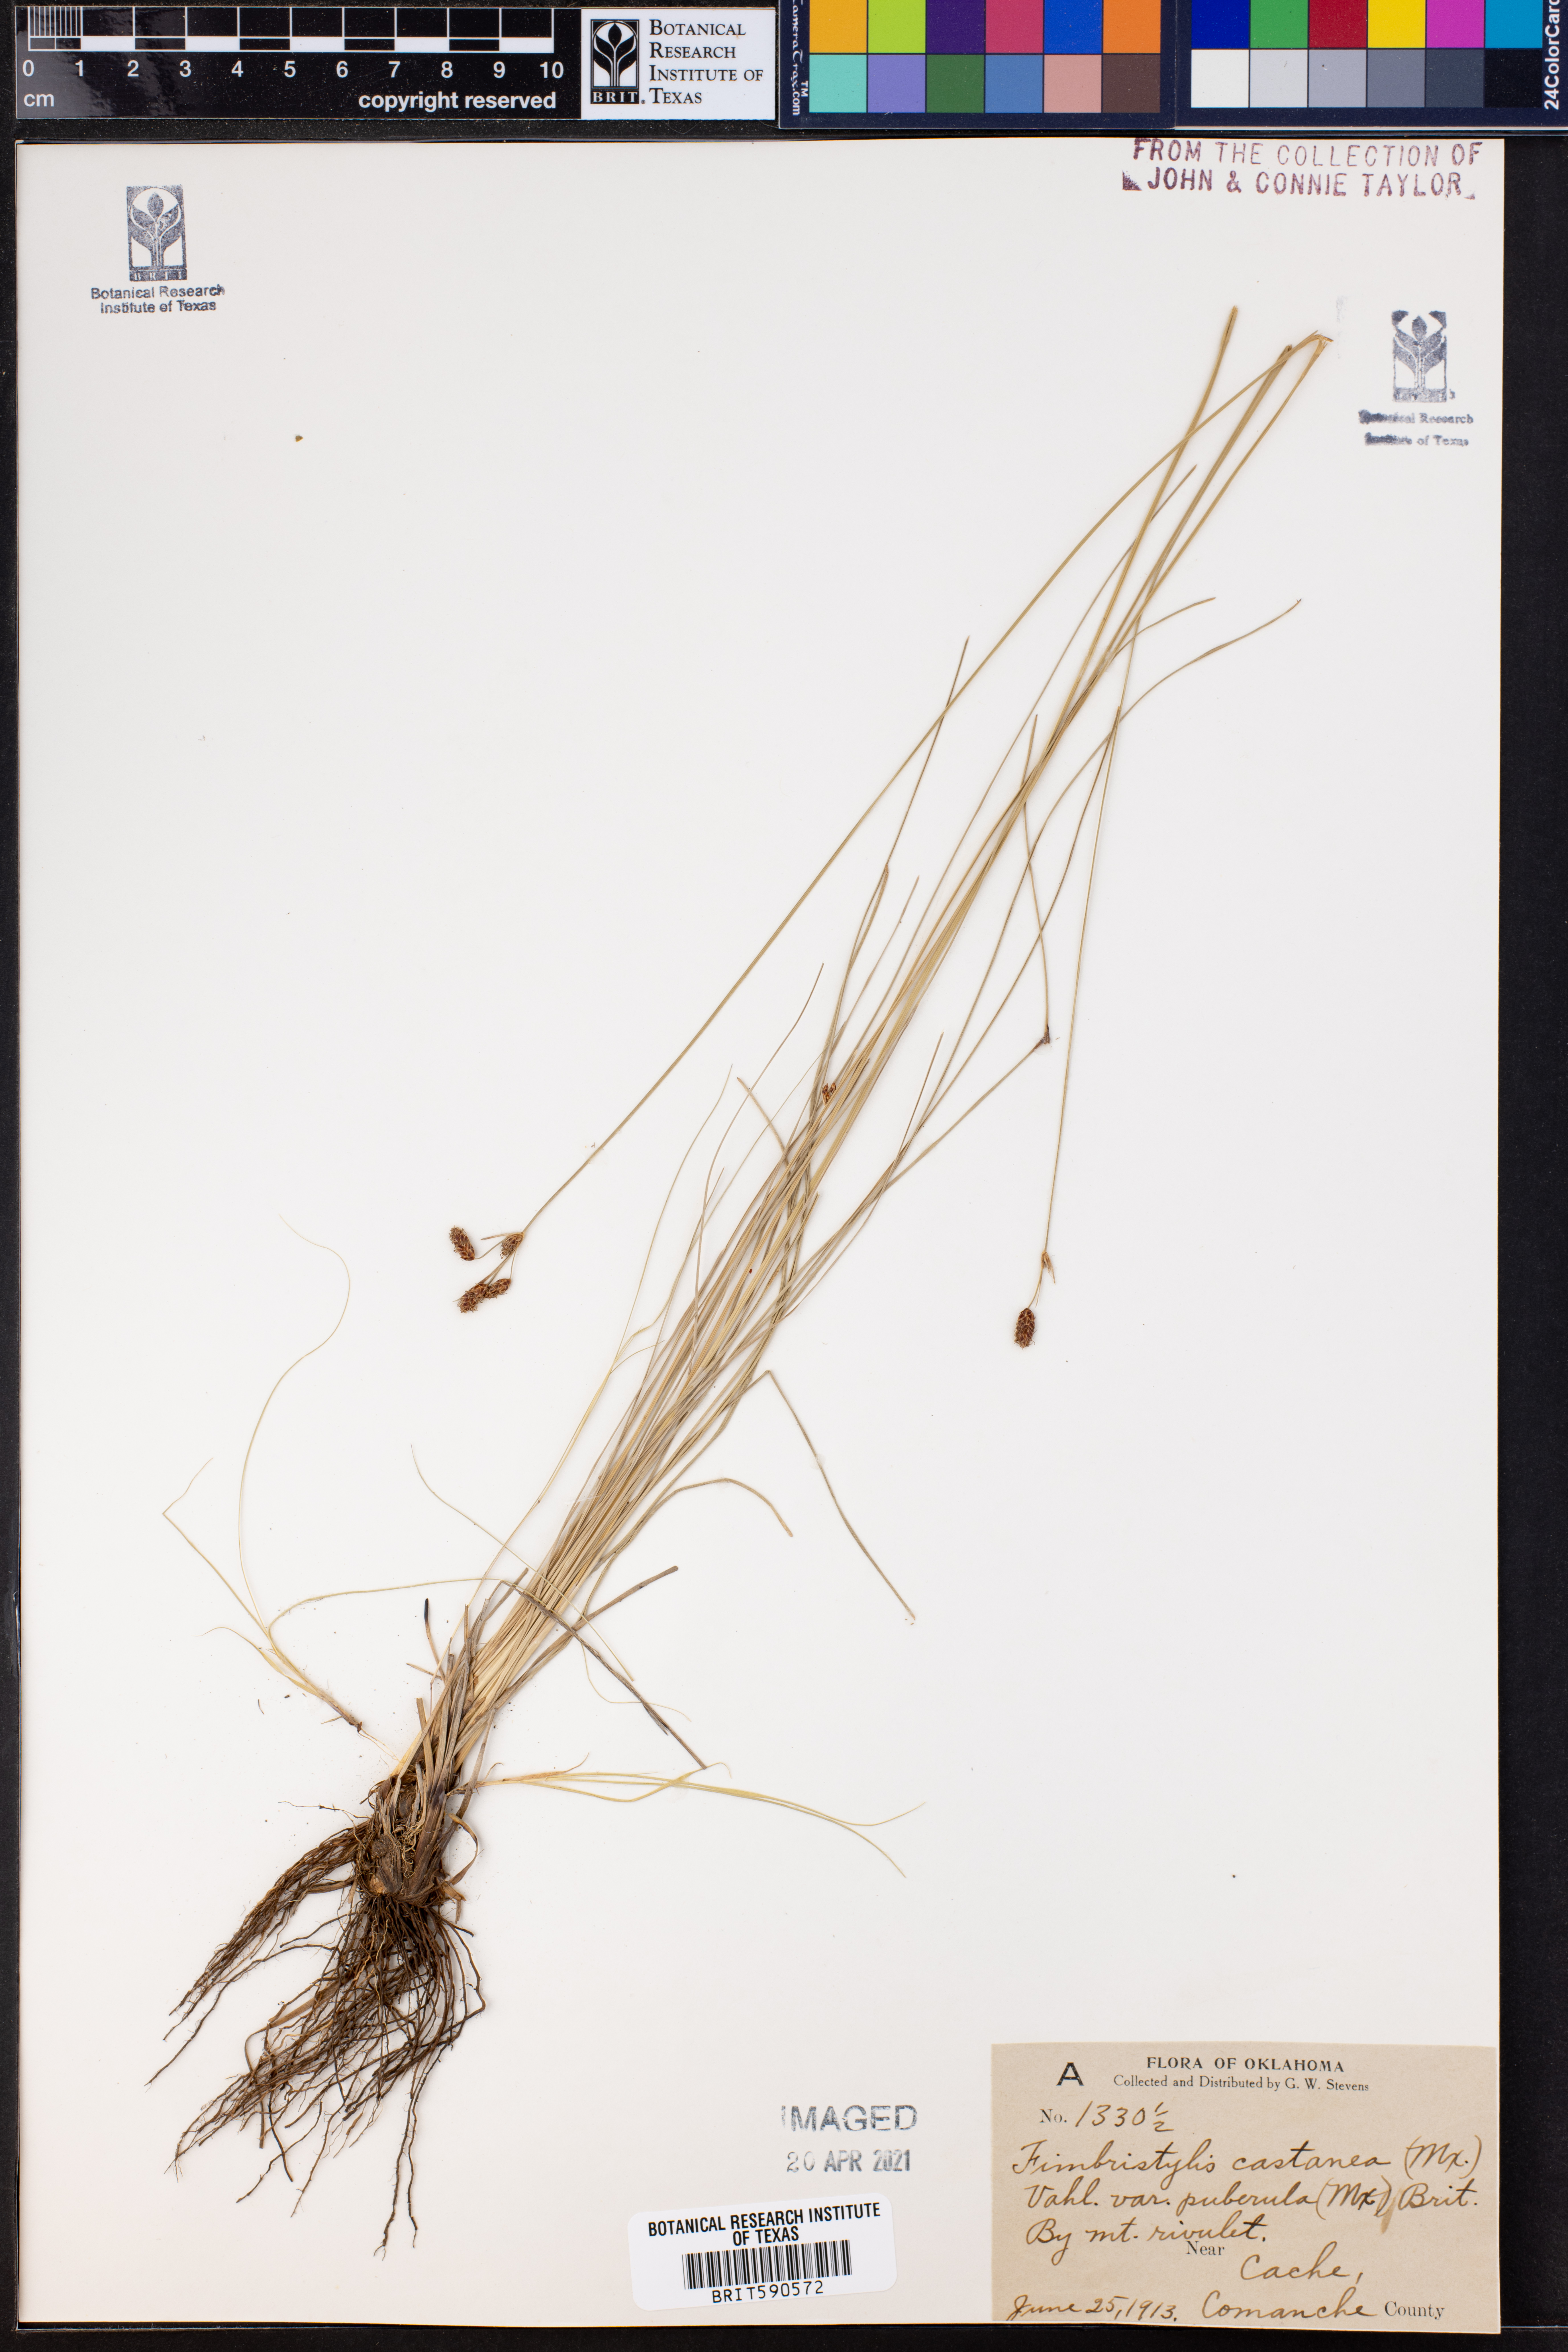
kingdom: Plantae
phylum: Tracheophyta
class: Liliopsida
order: Poales
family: Cyperaceae
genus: Fimbristylis
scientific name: Fimbristylis puberula
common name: Hairy fimbristylis
